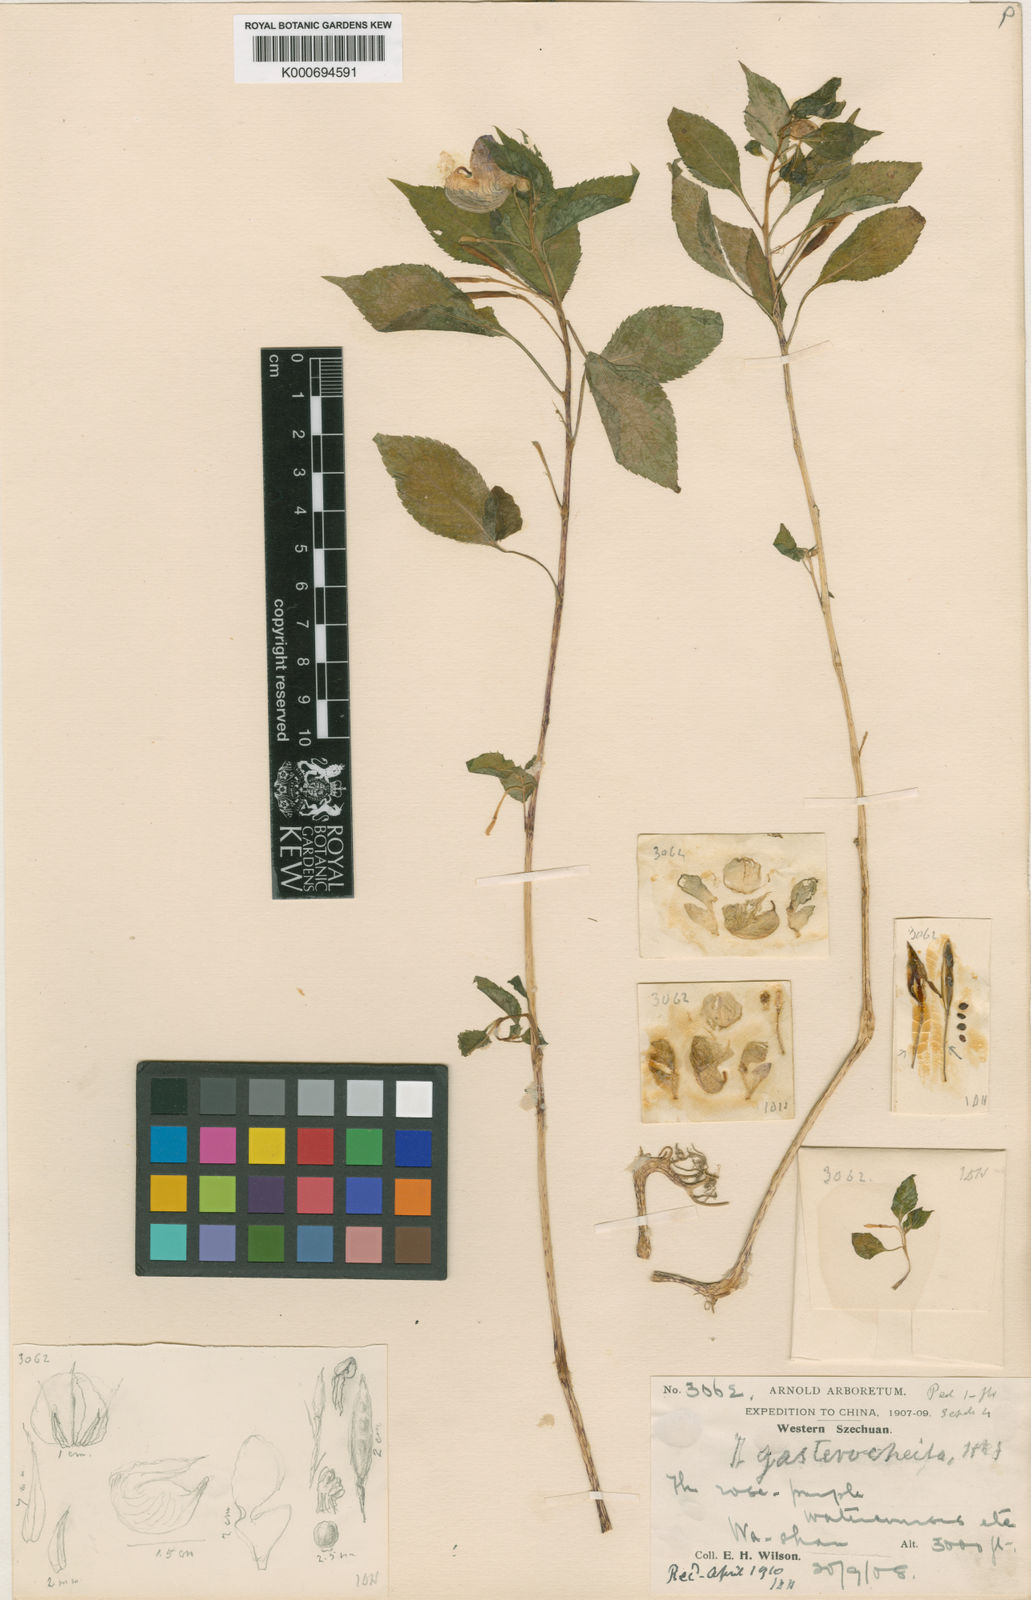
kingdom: Plantae
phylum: Tracheophyta
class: Magnoliopsida
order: Ericales
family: Balsaminaceae
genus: Impatiens
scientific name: Impatiens gasterocheila
